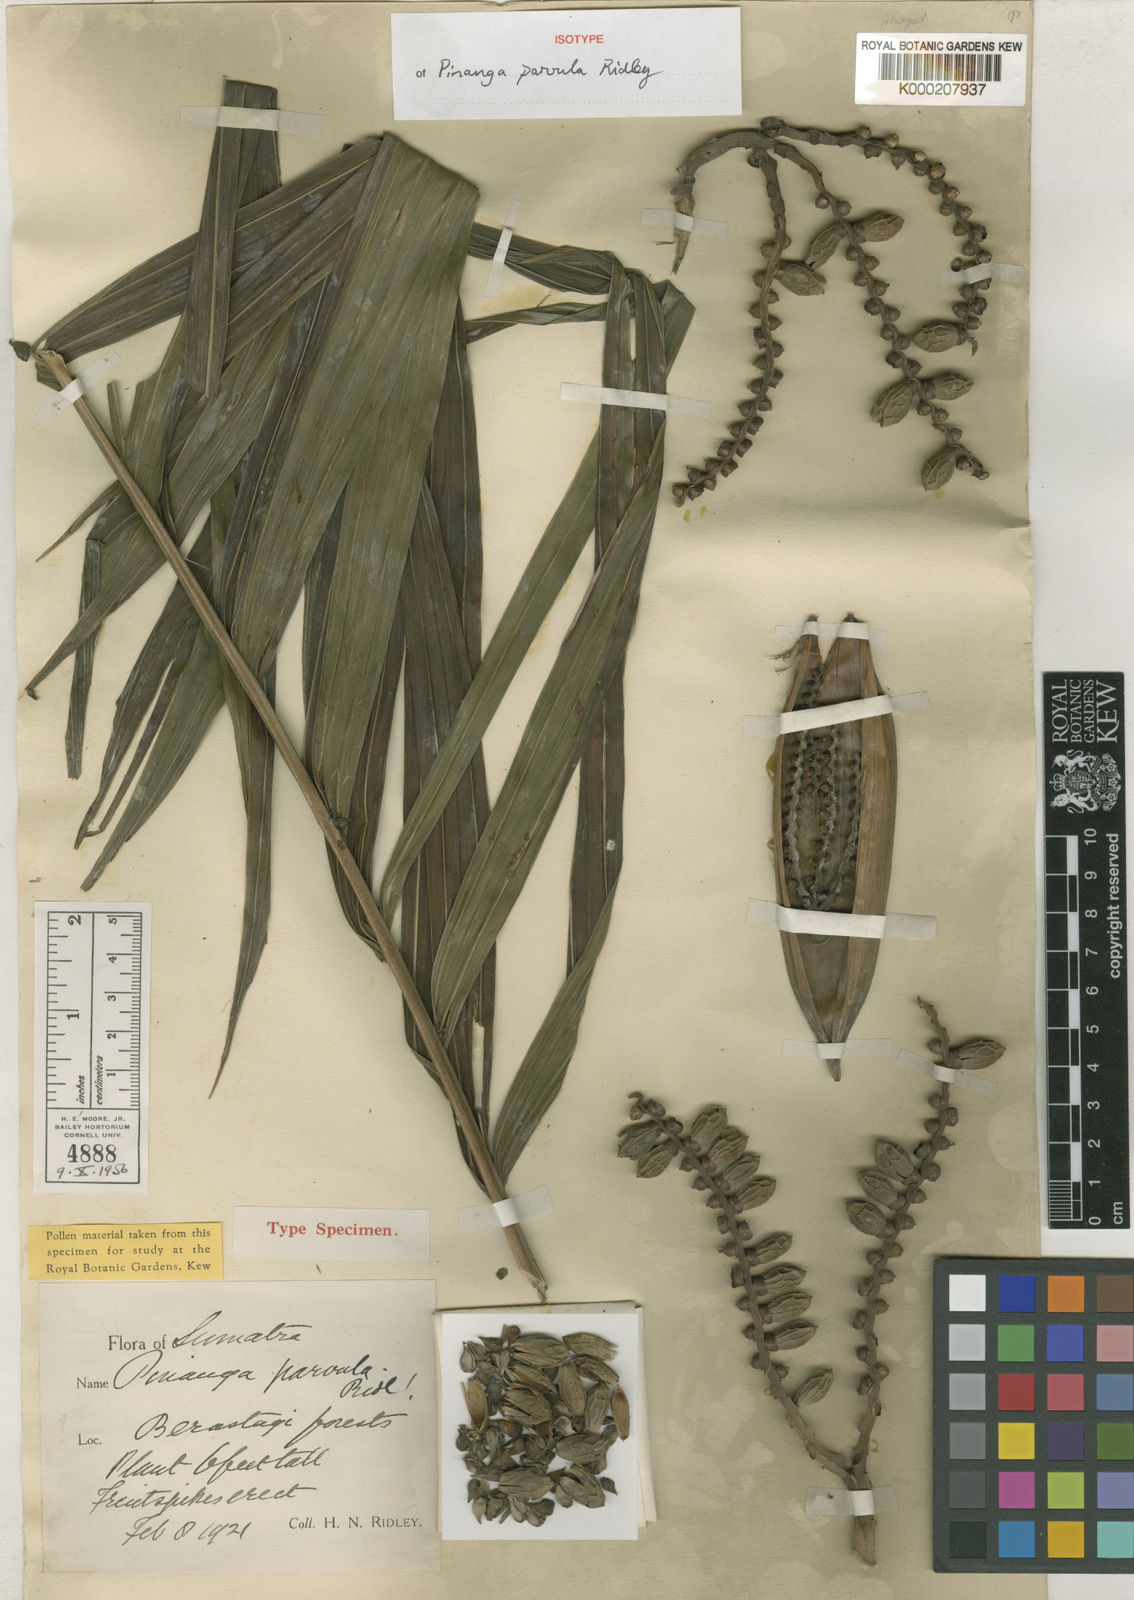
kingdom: Plantae
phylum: Tracheophyta
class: Liliopsida
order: Arecales
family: Arecaceae
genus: Pinanga
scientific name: Pinanga parvula
